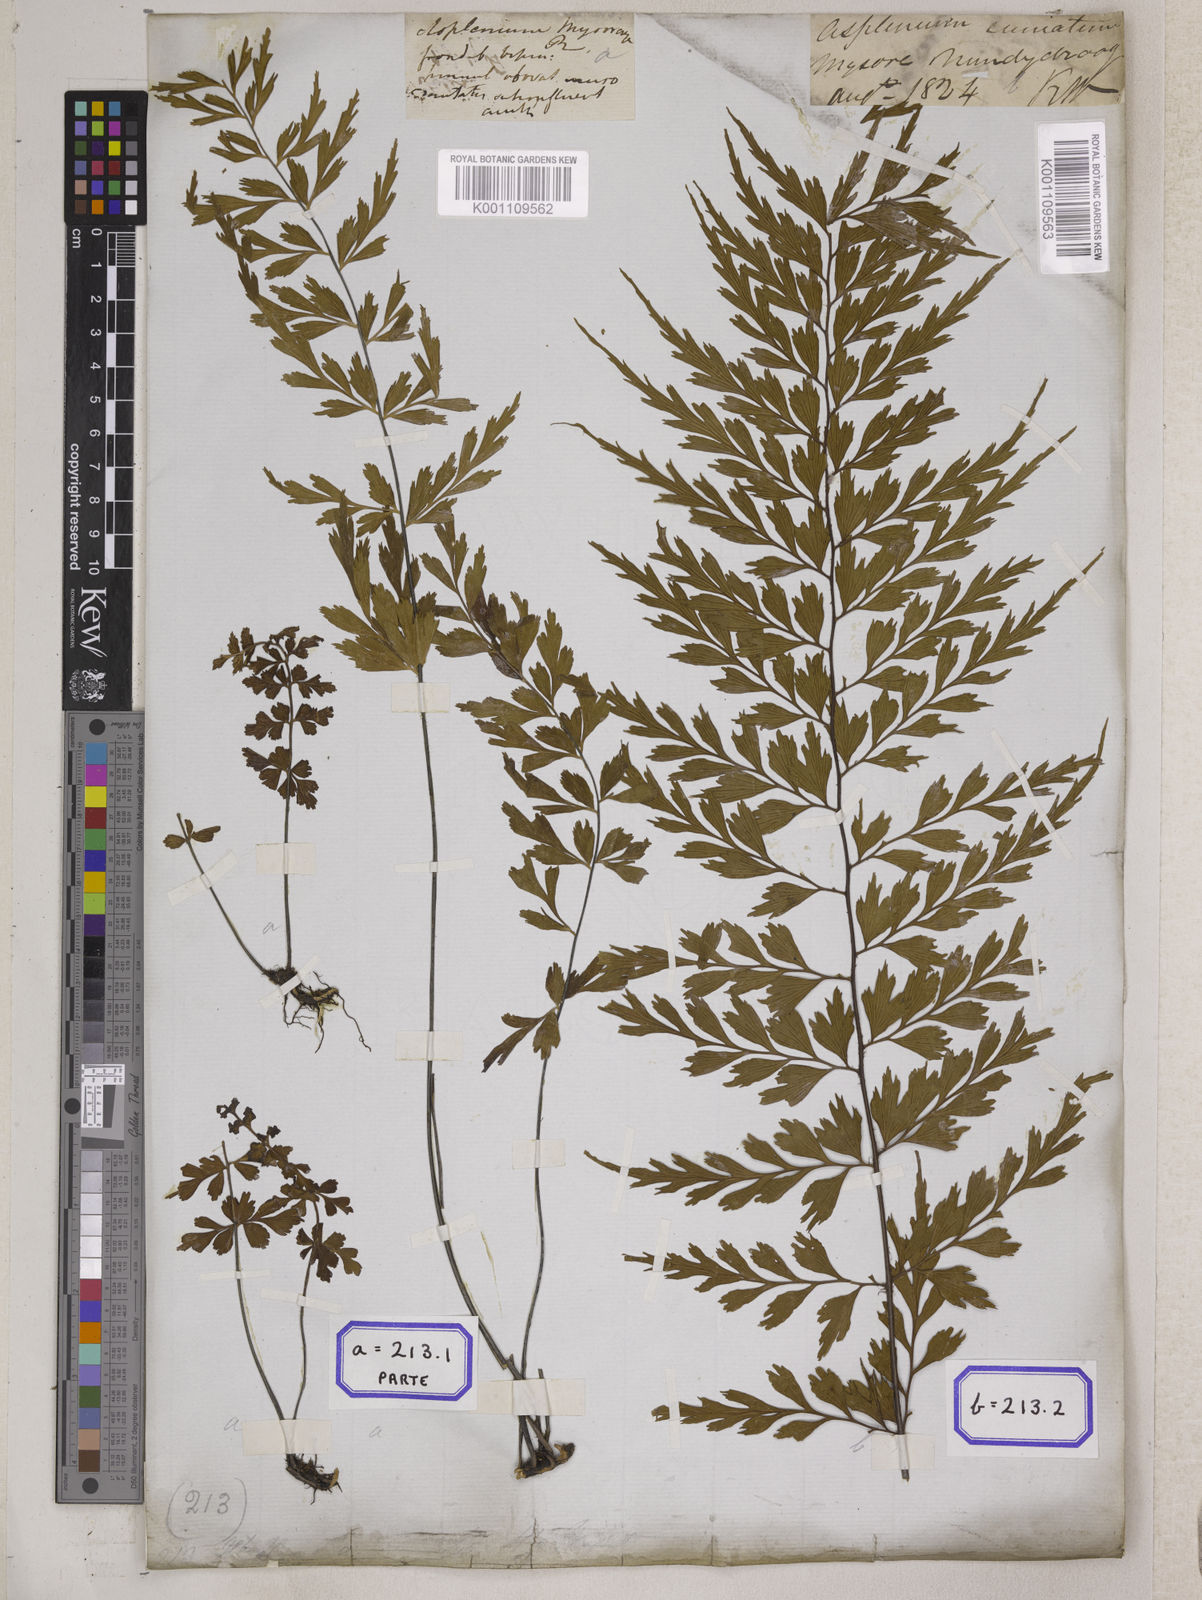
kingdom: Plantae
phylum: Tracheophyta
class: Polypodiopsida
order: Polypodiales
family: Aspleniaceae
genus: Asplenium
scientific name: Asplenium mysorense
